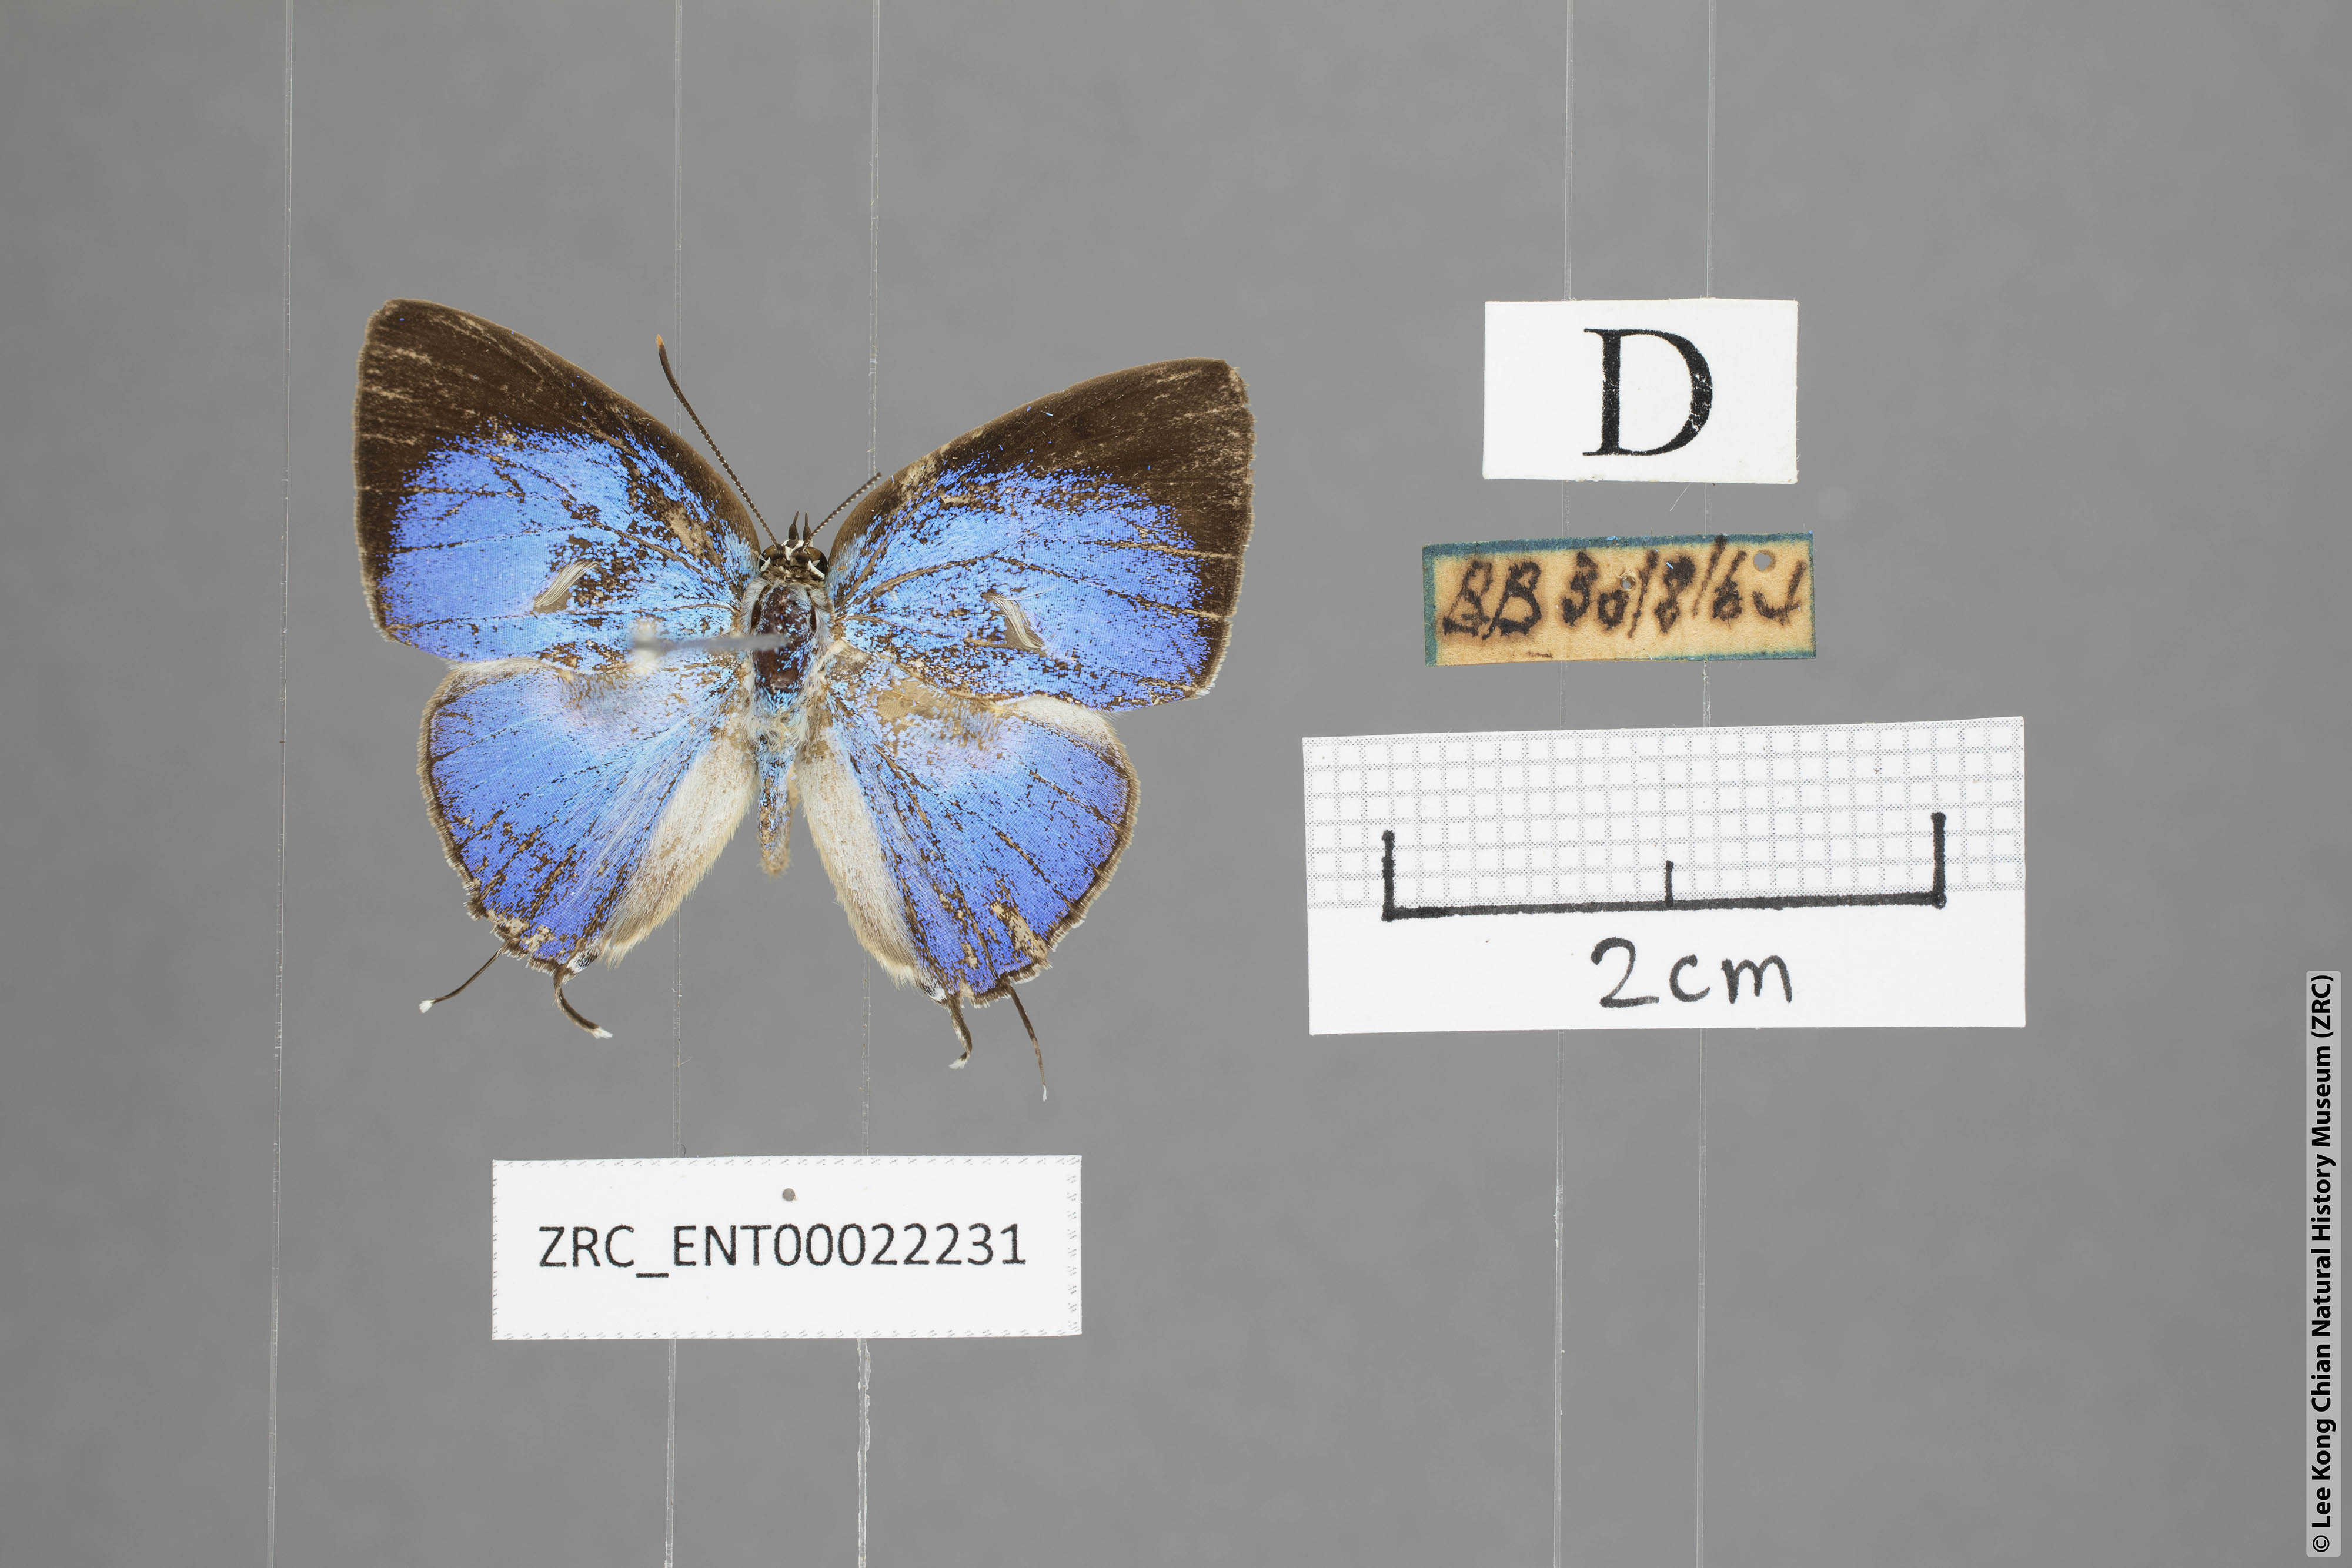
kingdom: Animalia
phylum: Arthropoda
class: Insecta
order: Lepidoptera
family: Lycaenidae
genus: Tajuria
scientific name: Tajuria
